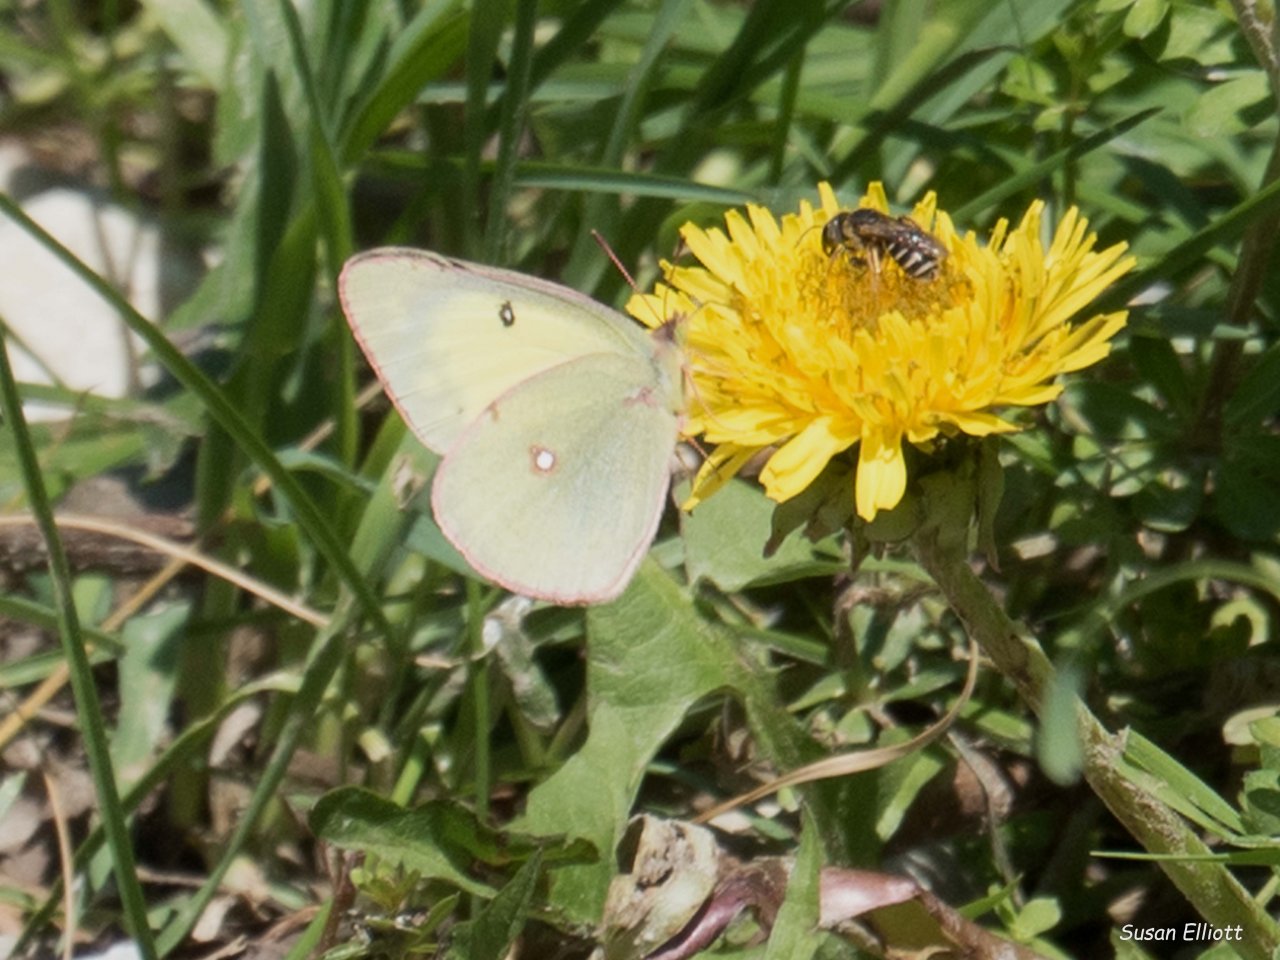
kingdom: Animalia
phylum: Arthropoda
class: Insecta
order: Lepidoptera
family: Pieridae
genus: Colias
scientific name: Colias philodice
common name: Clouded Sulphur
